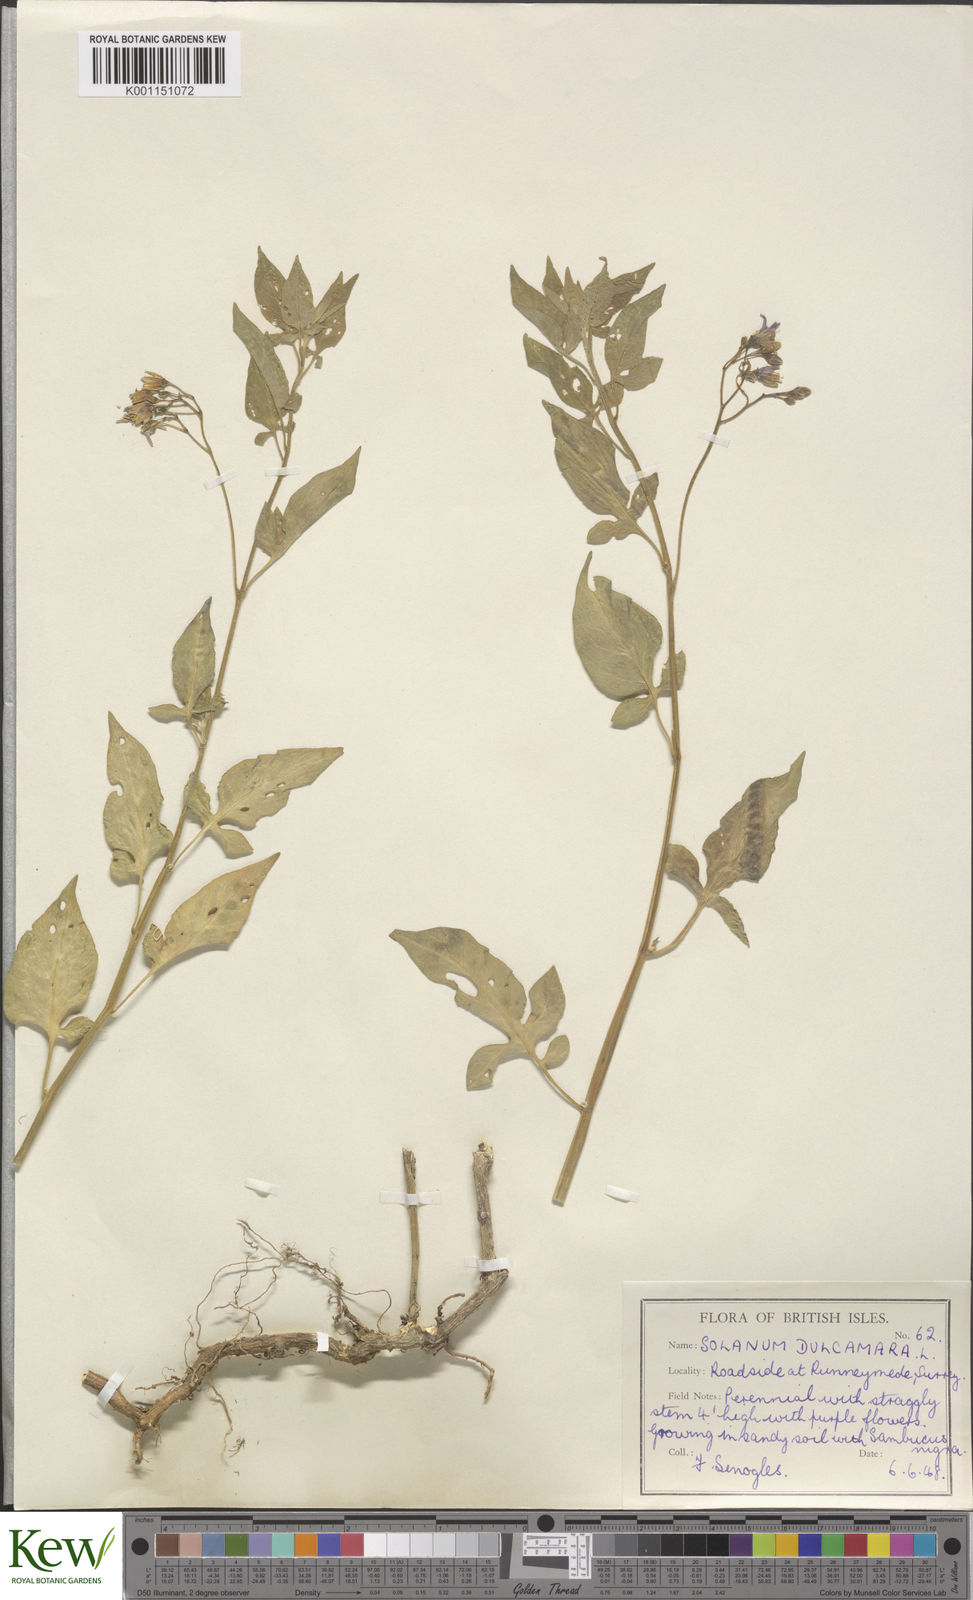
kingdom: Plantae
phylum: Tracheophyta
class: Magnoliopsida
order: Solanales
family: Solanaceae
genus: Solanum
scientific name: Solanum dulcamara
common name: Climbing nightshade
